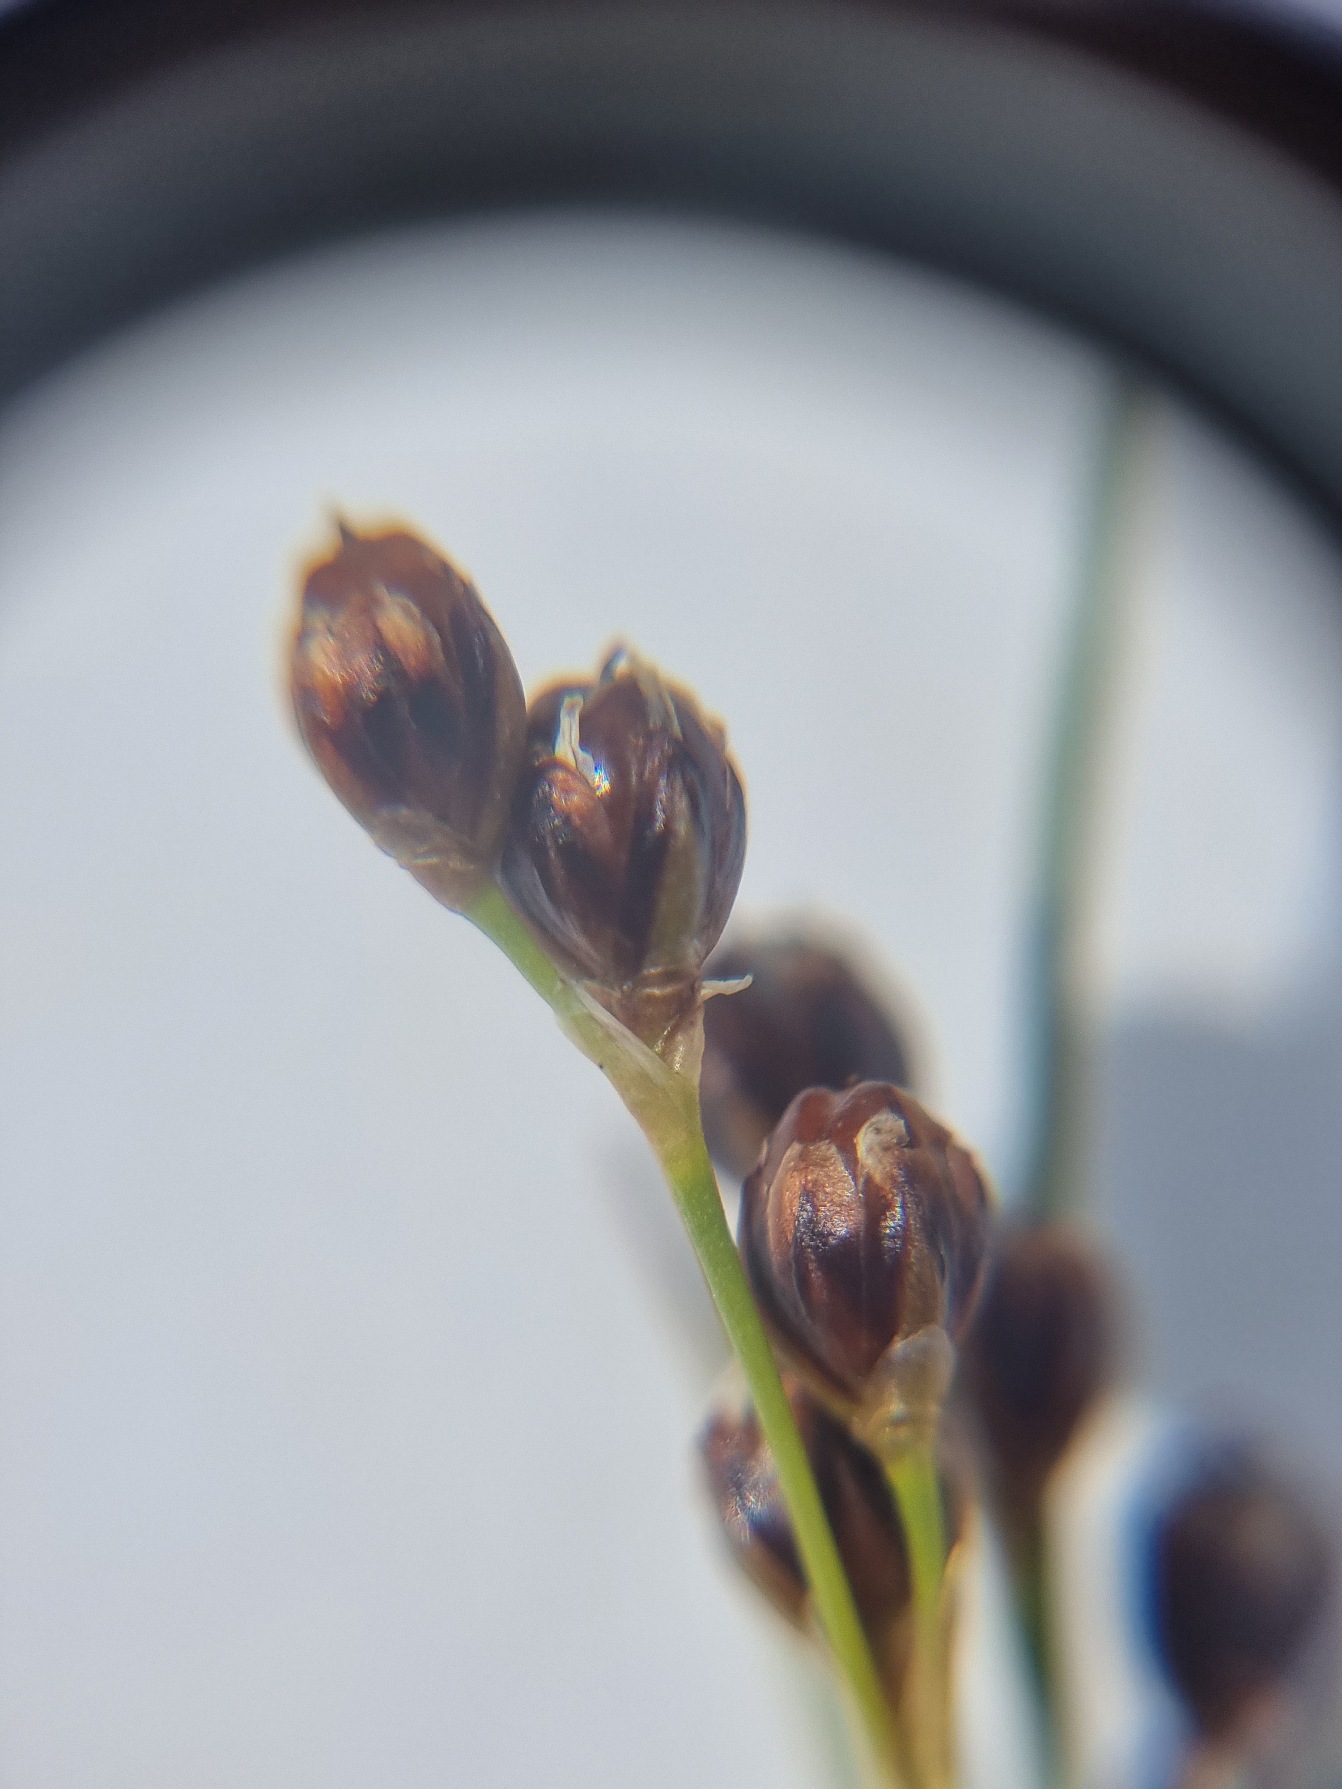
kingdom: Plantae
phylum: Tracheophyta
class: Liliopsida
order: Poales
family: Juncaceae
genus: Juncus
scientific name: Juncus gerardi
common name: Harril
